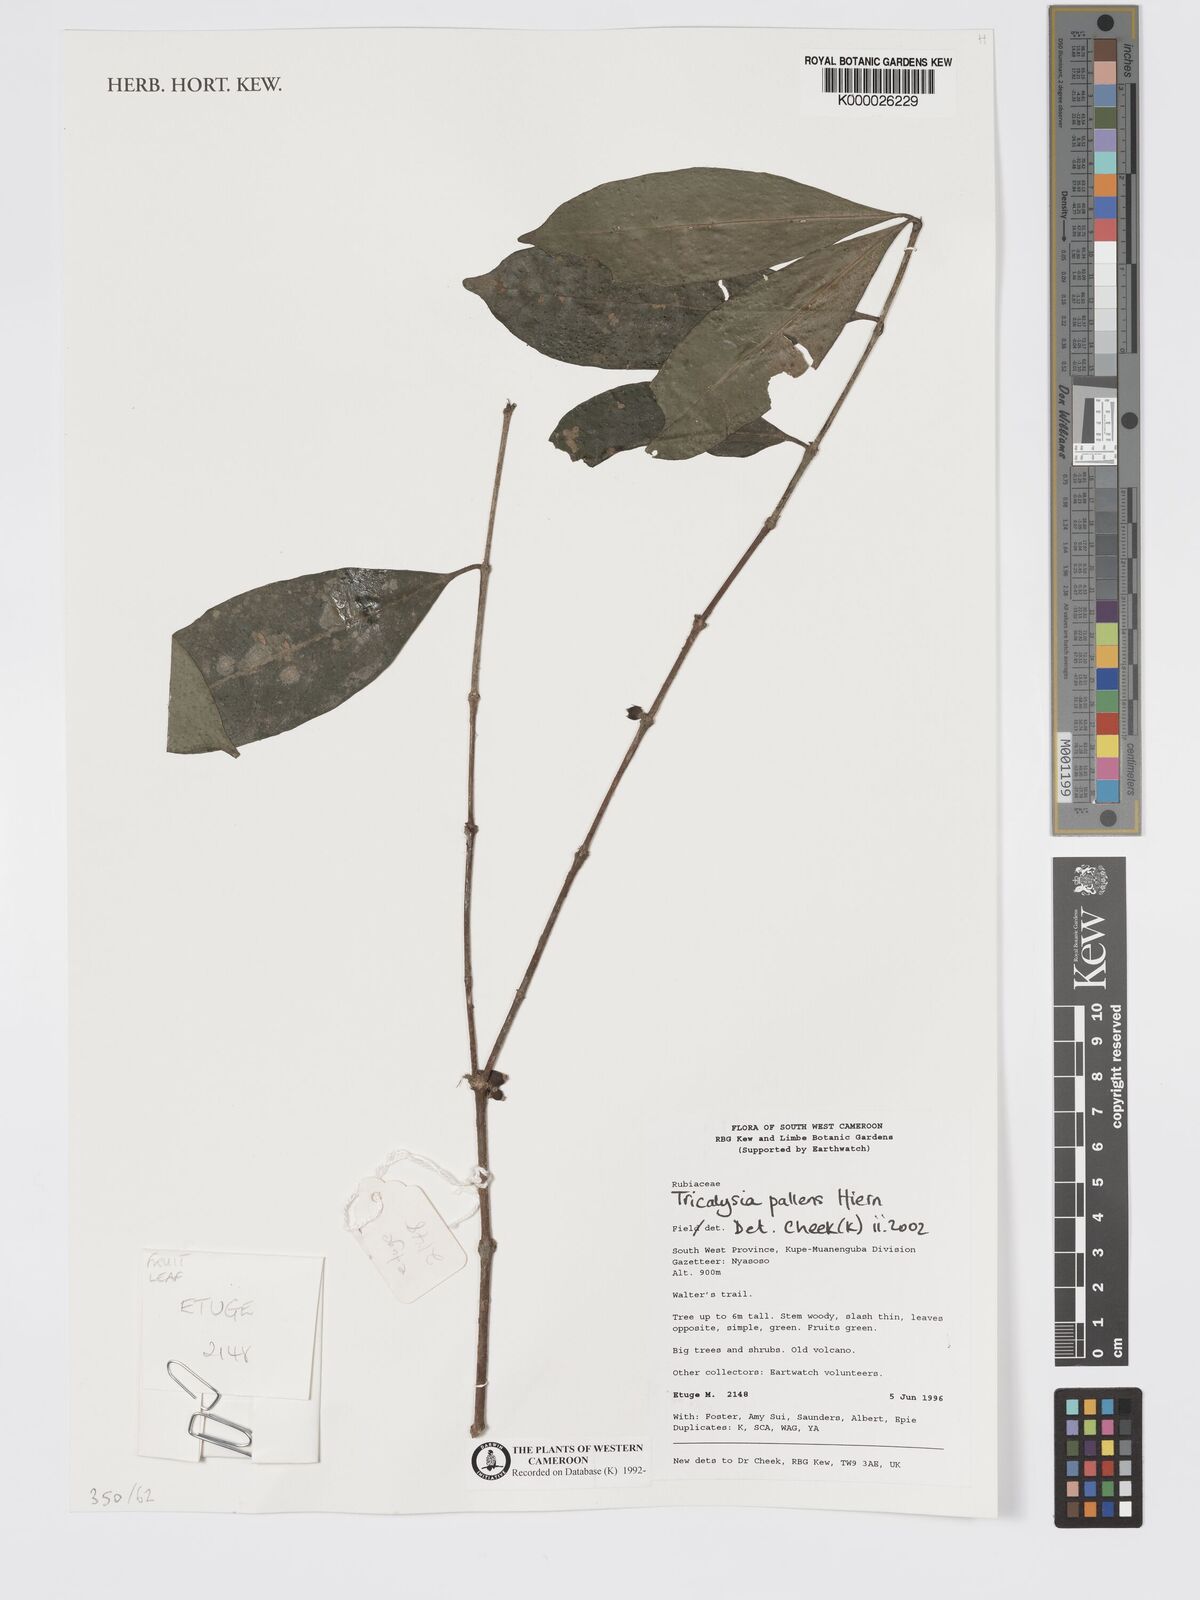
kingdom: Plantae
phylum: Tracheophyta
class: Magnoliopsida
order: Gentianales
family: Rubiaceae
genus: Tricalysia
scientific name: Tricalysia pallens
